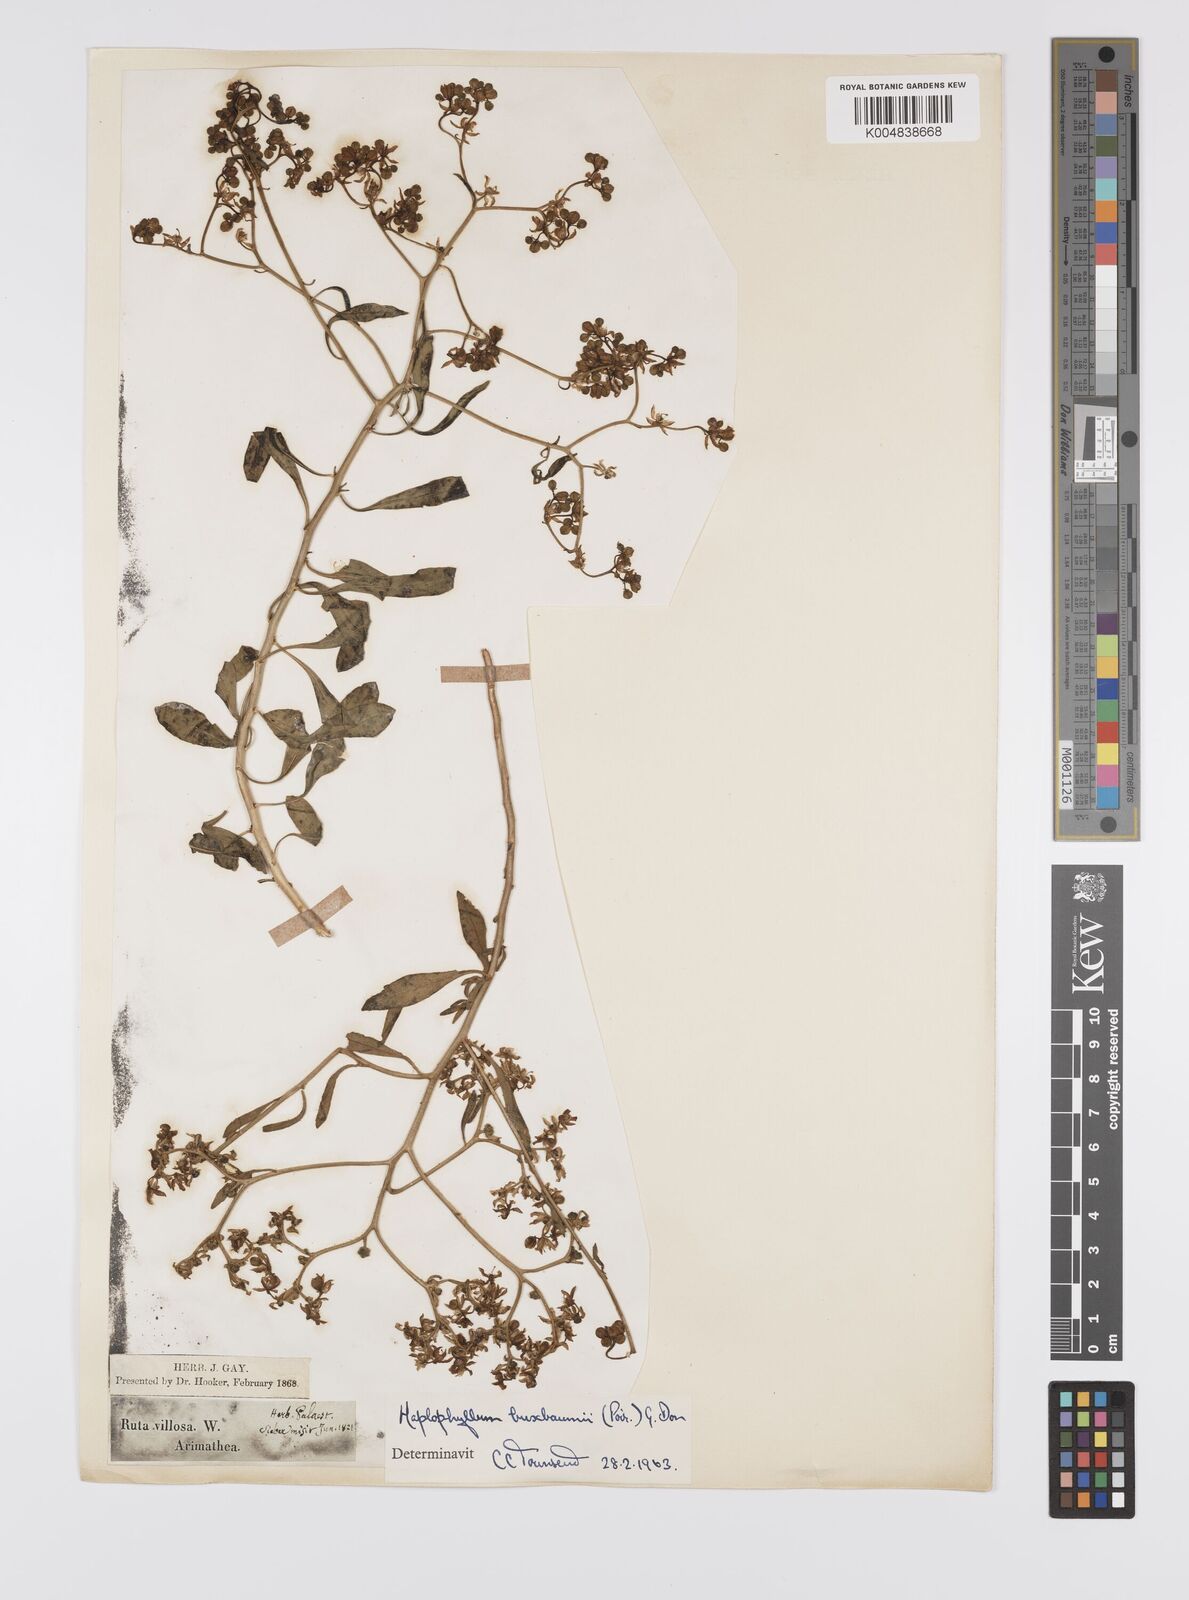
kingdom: Plantae
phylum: Tracheophyta
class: Magnoliopsida
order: Sapindales
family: Rutaceae
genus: Haplophyllum
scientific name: Haplophyllum
